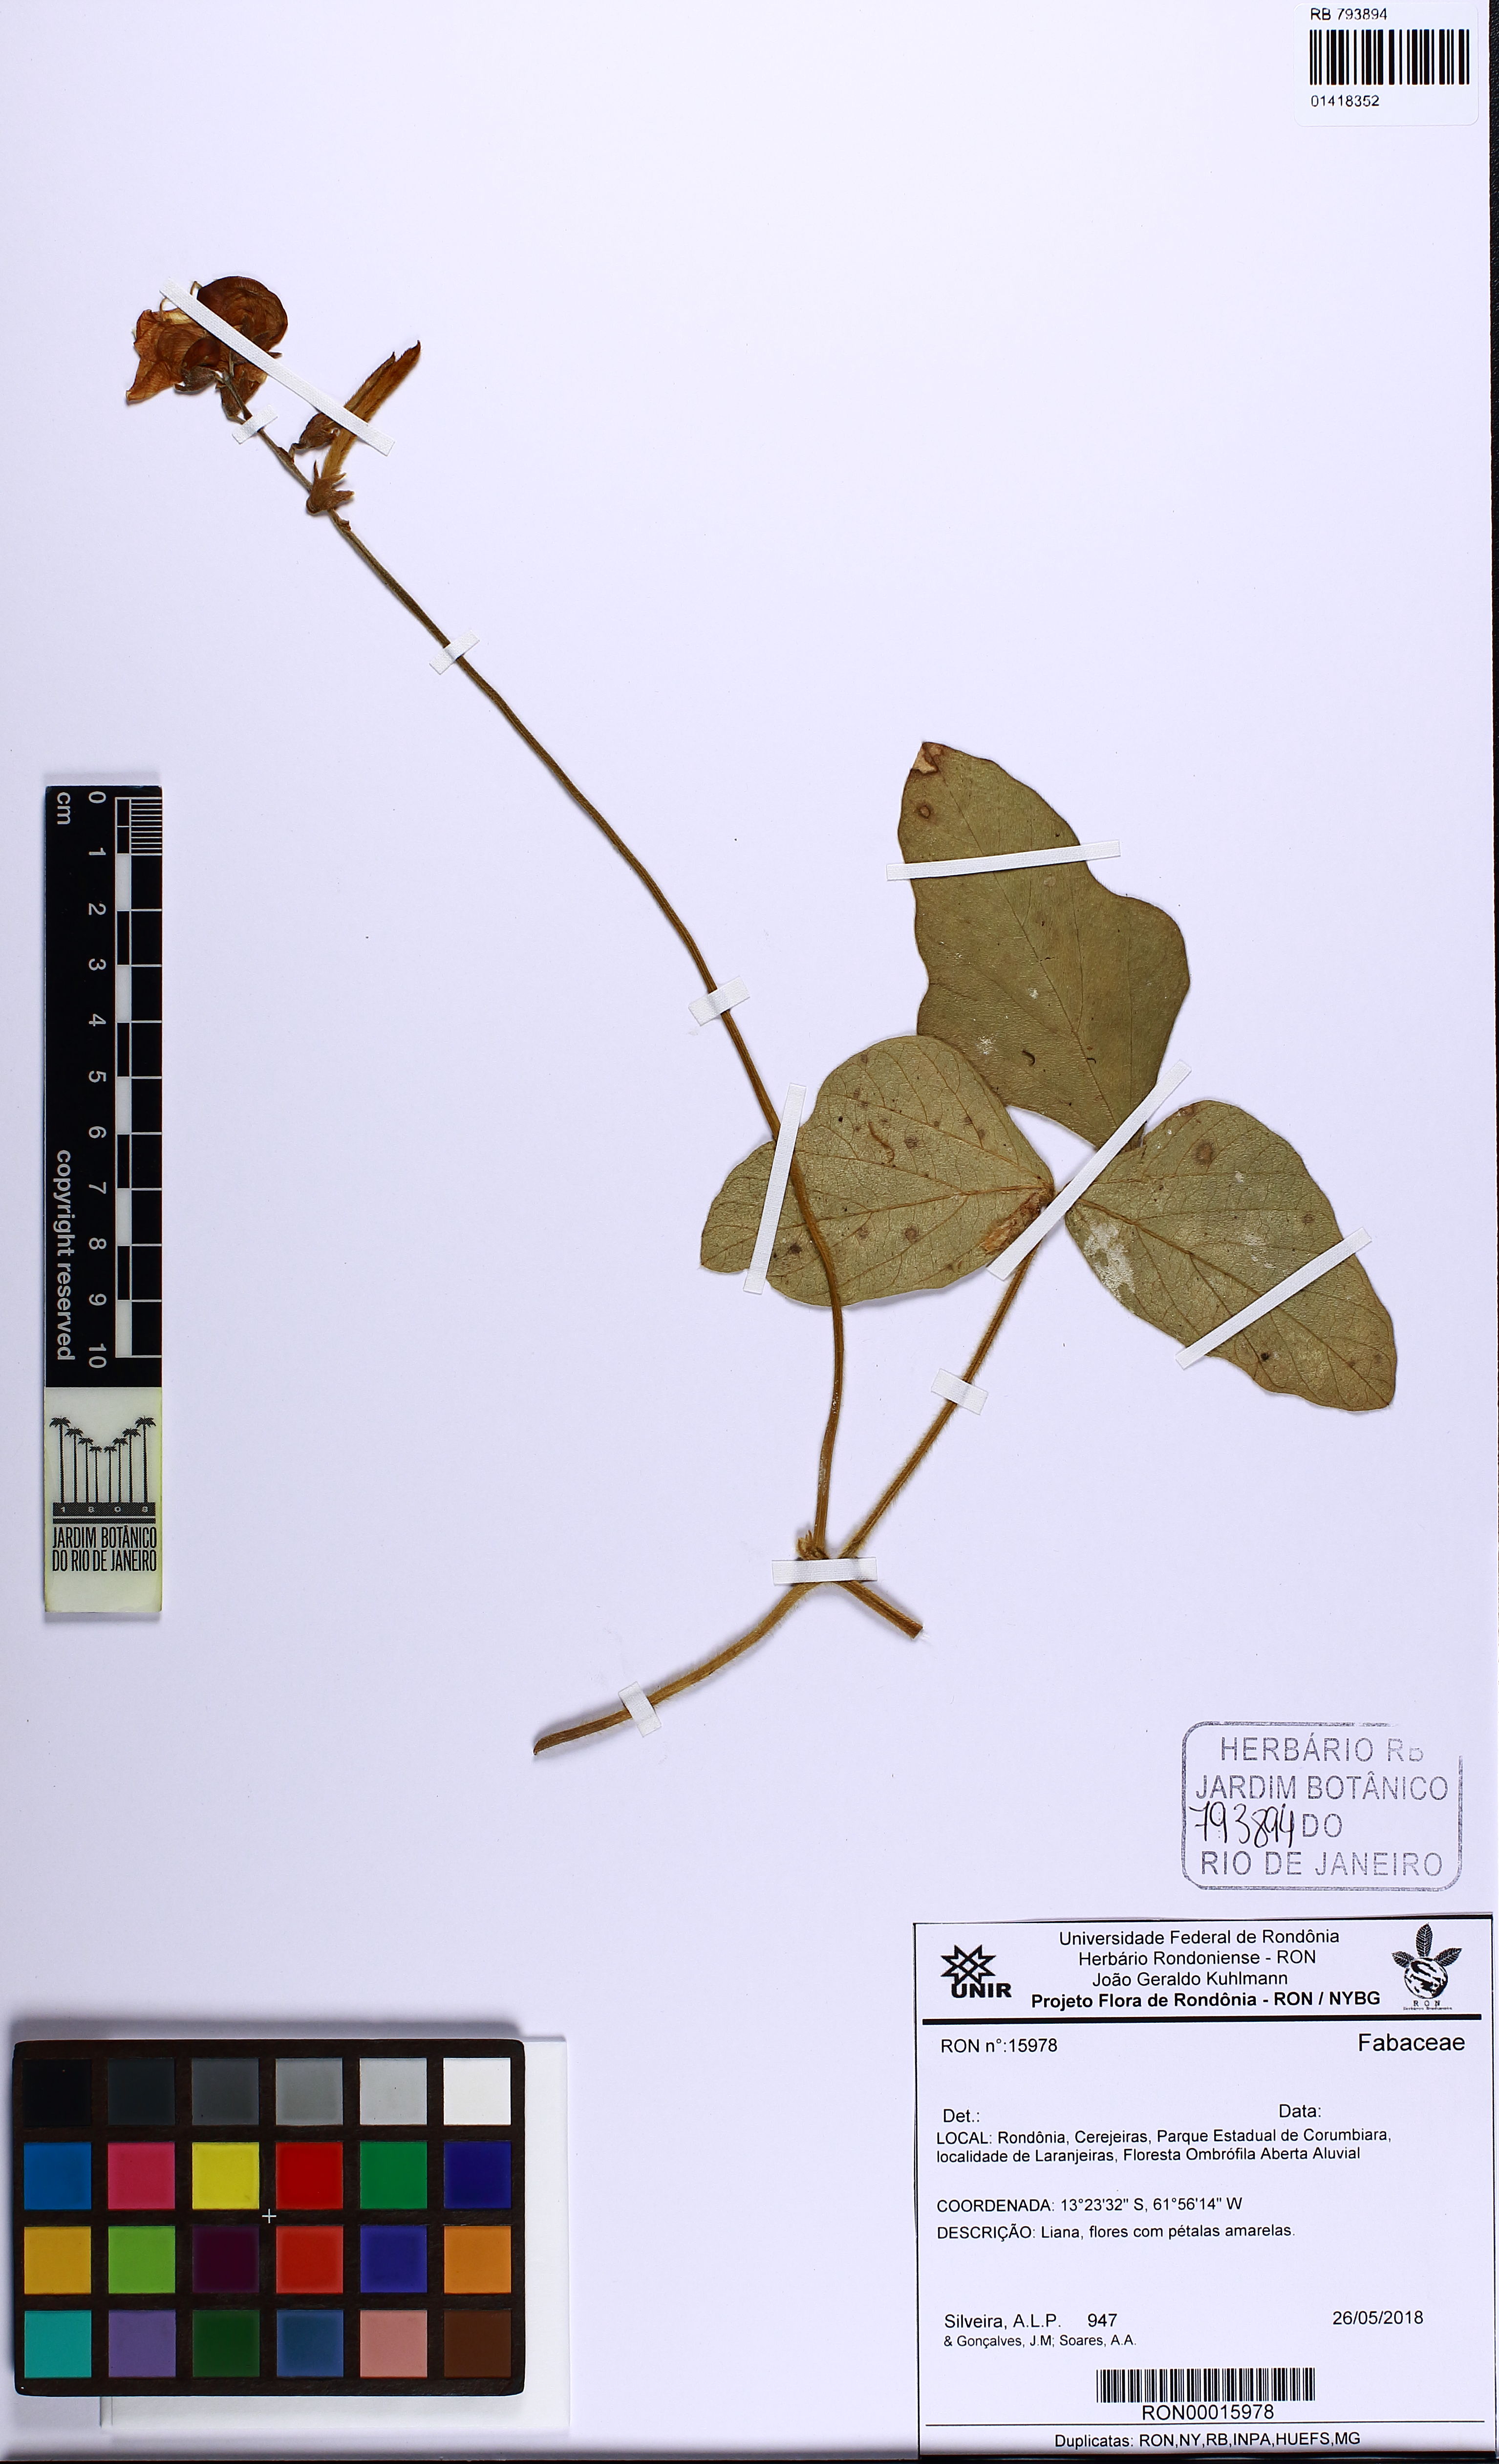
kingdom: Plantae
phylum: Tracheophyta
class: Magnoliopsida
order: Fabales
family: Fabaceae
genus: Macroptilium
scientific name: Macroptilium
